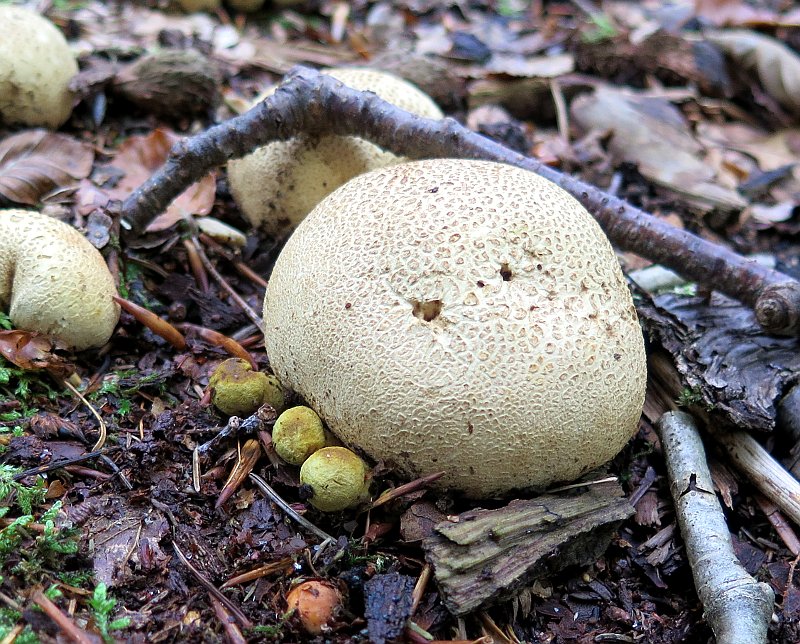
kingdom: Fungi
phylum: Basidiomycota
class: Agaricomycetes
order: Boletales
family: Boletaceae
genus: Pseudoboletus
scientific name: Pseudoboletus parasiticus
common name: snyltende rørhat
